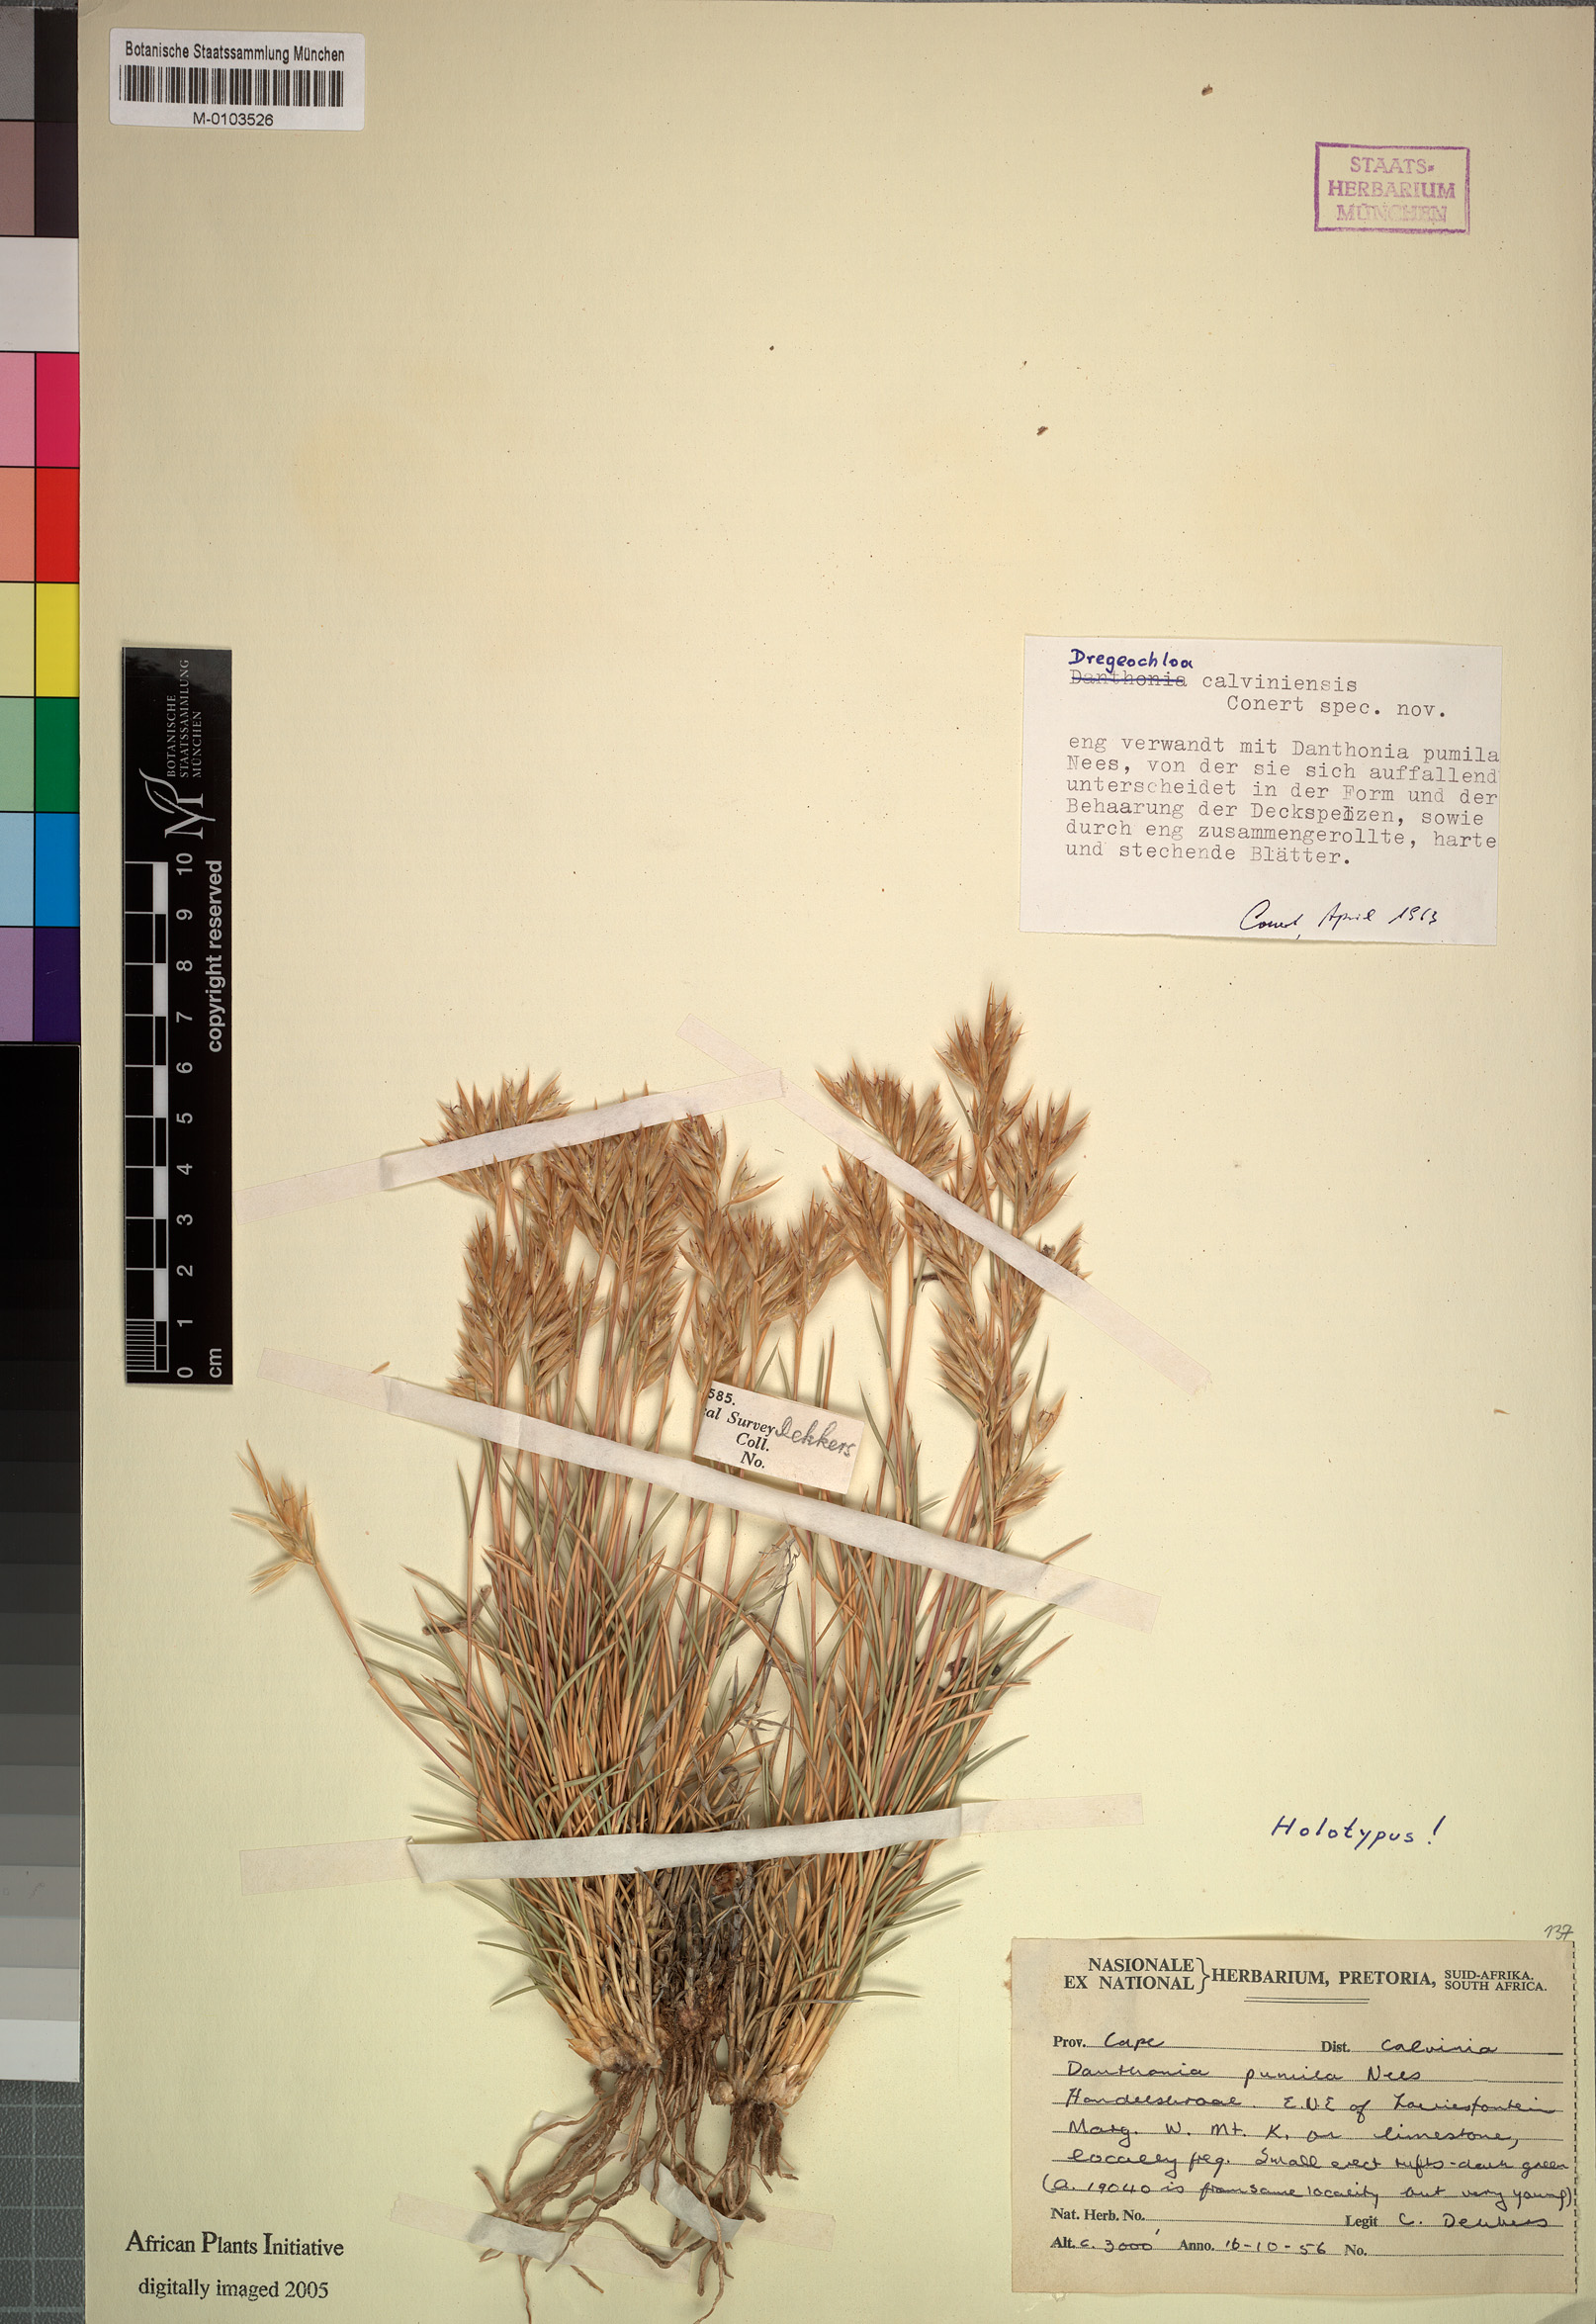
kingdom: Plantae
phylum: Tracheophyta
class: Liliopsida
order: Poales
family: Poaceae
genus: Dregeochloa
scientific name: Dregeochloa calviniensis
